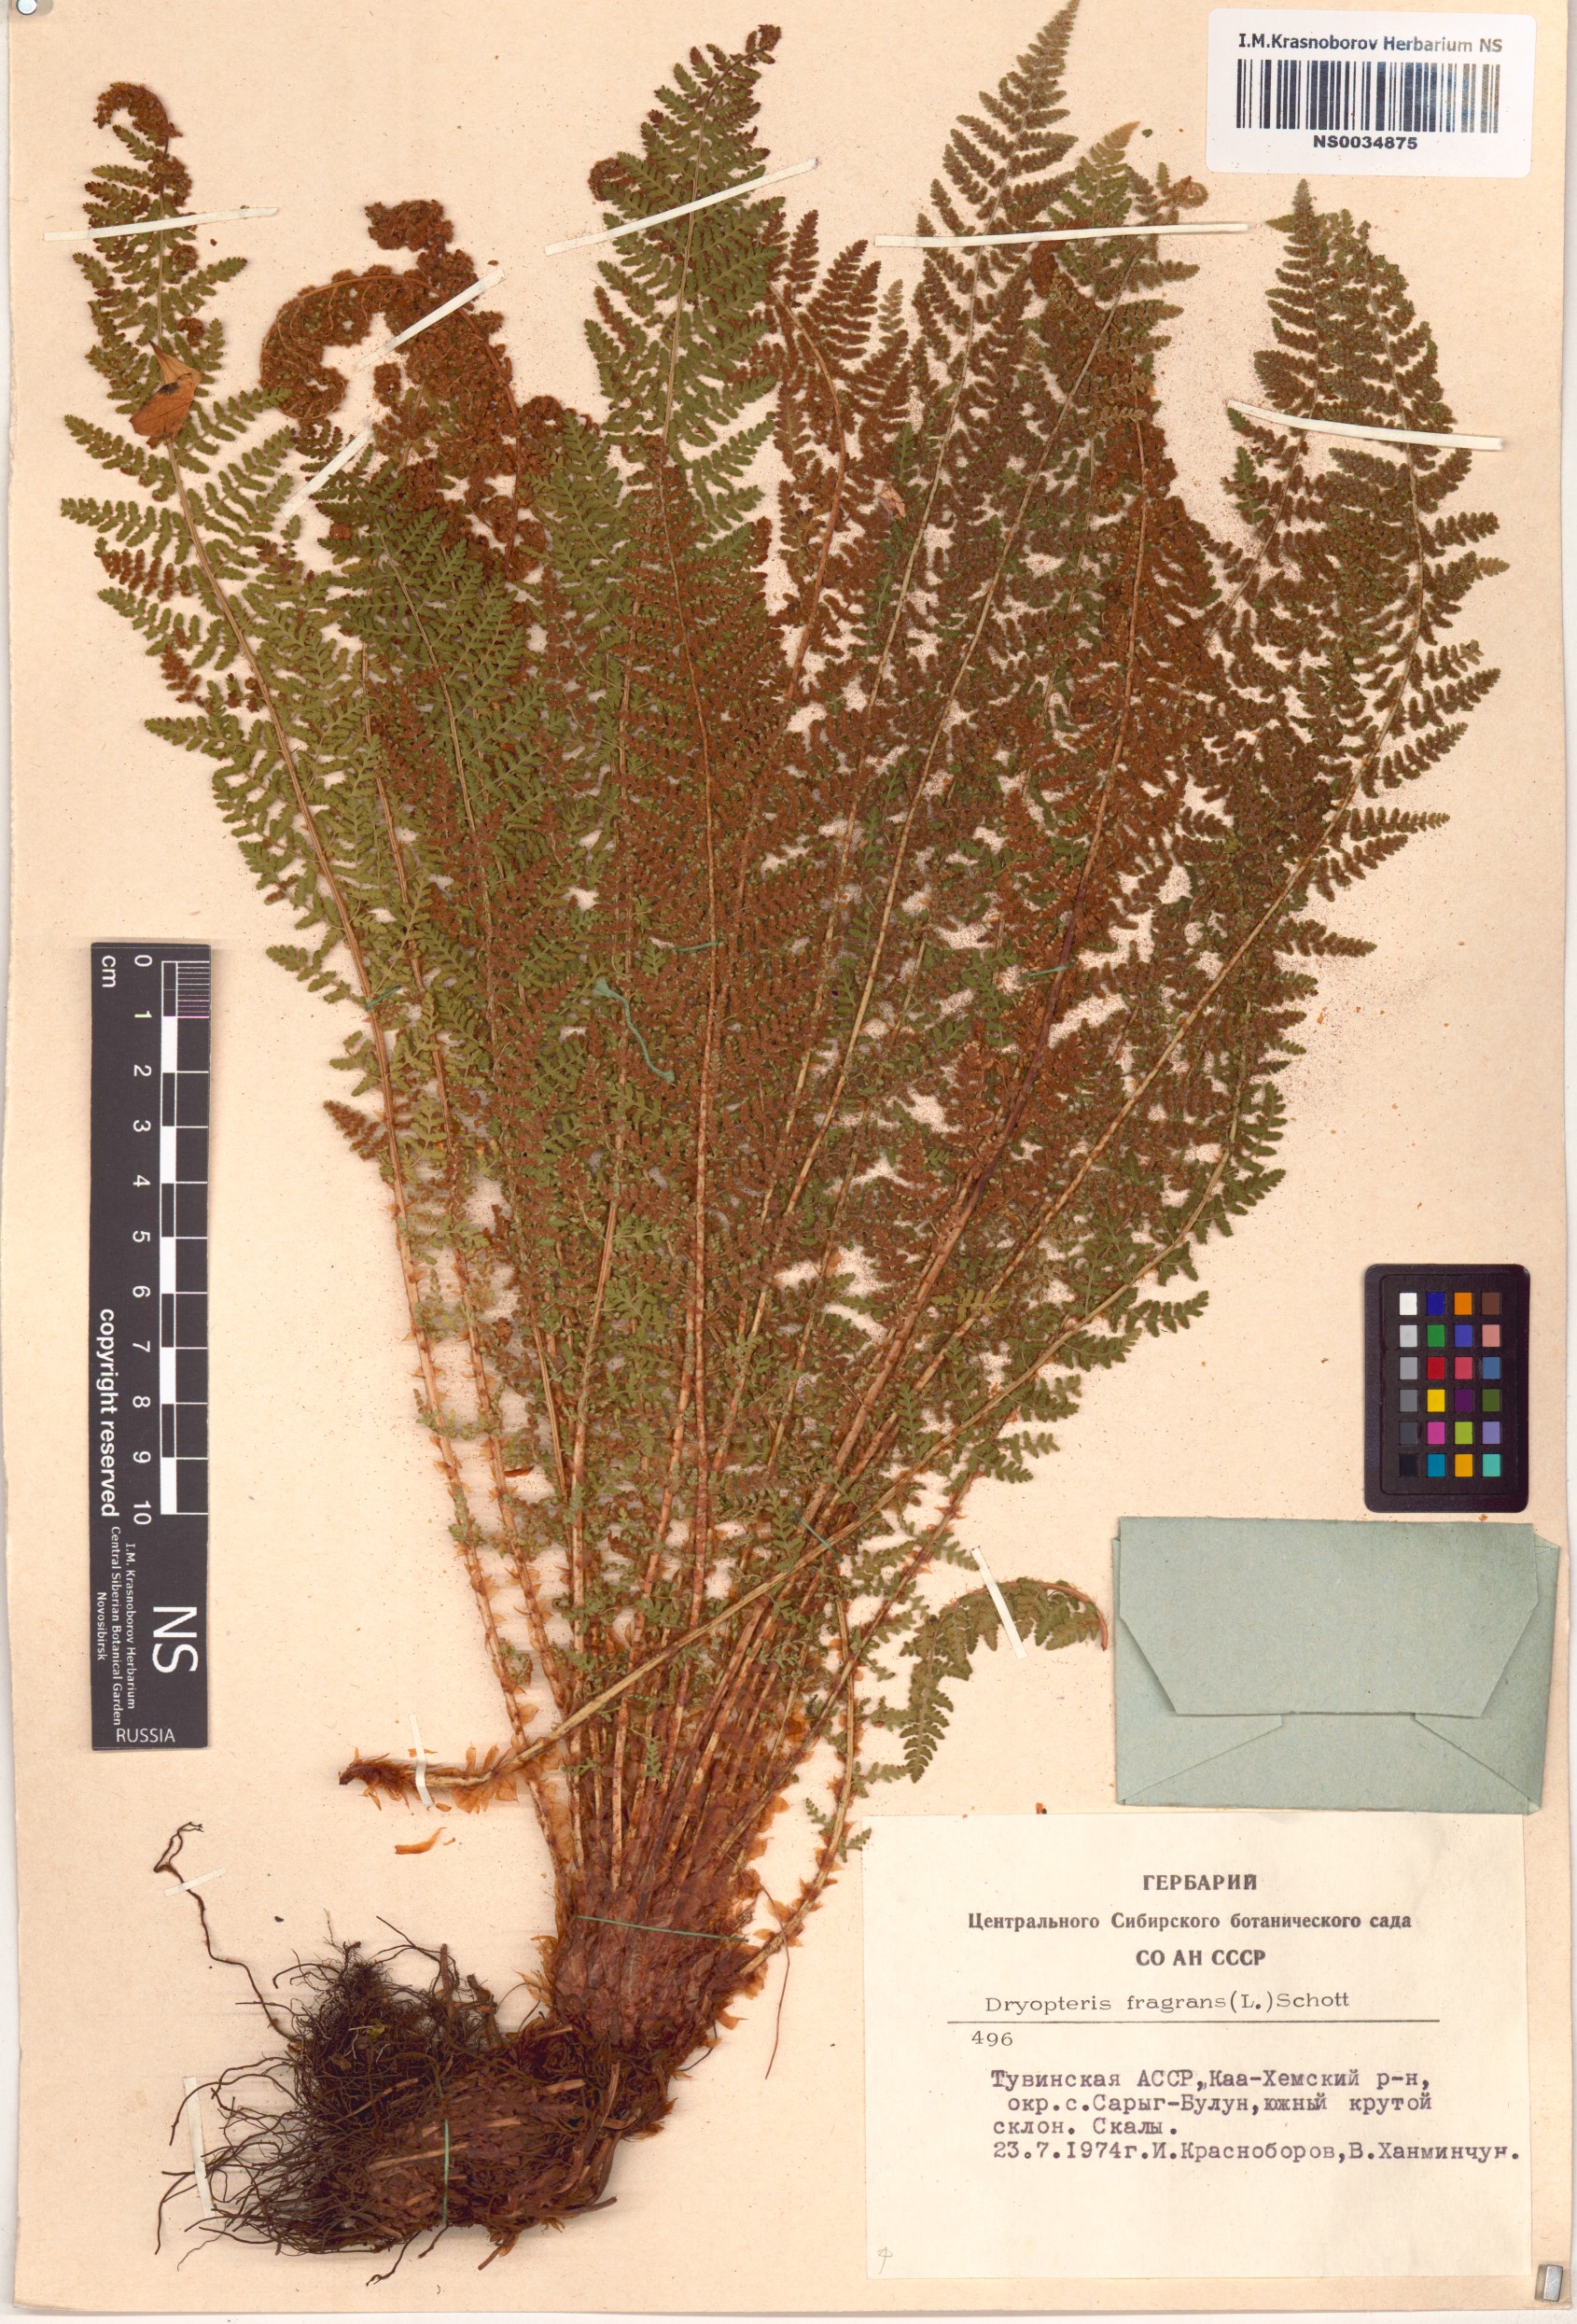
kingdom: Plantae
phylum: Tracheophyta
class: Polypodiopsida
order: Polypodiales
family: Dryopteridaceae
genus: Dryopteris
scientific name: Dryopteris fragrans
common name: Fragrant wood fern
